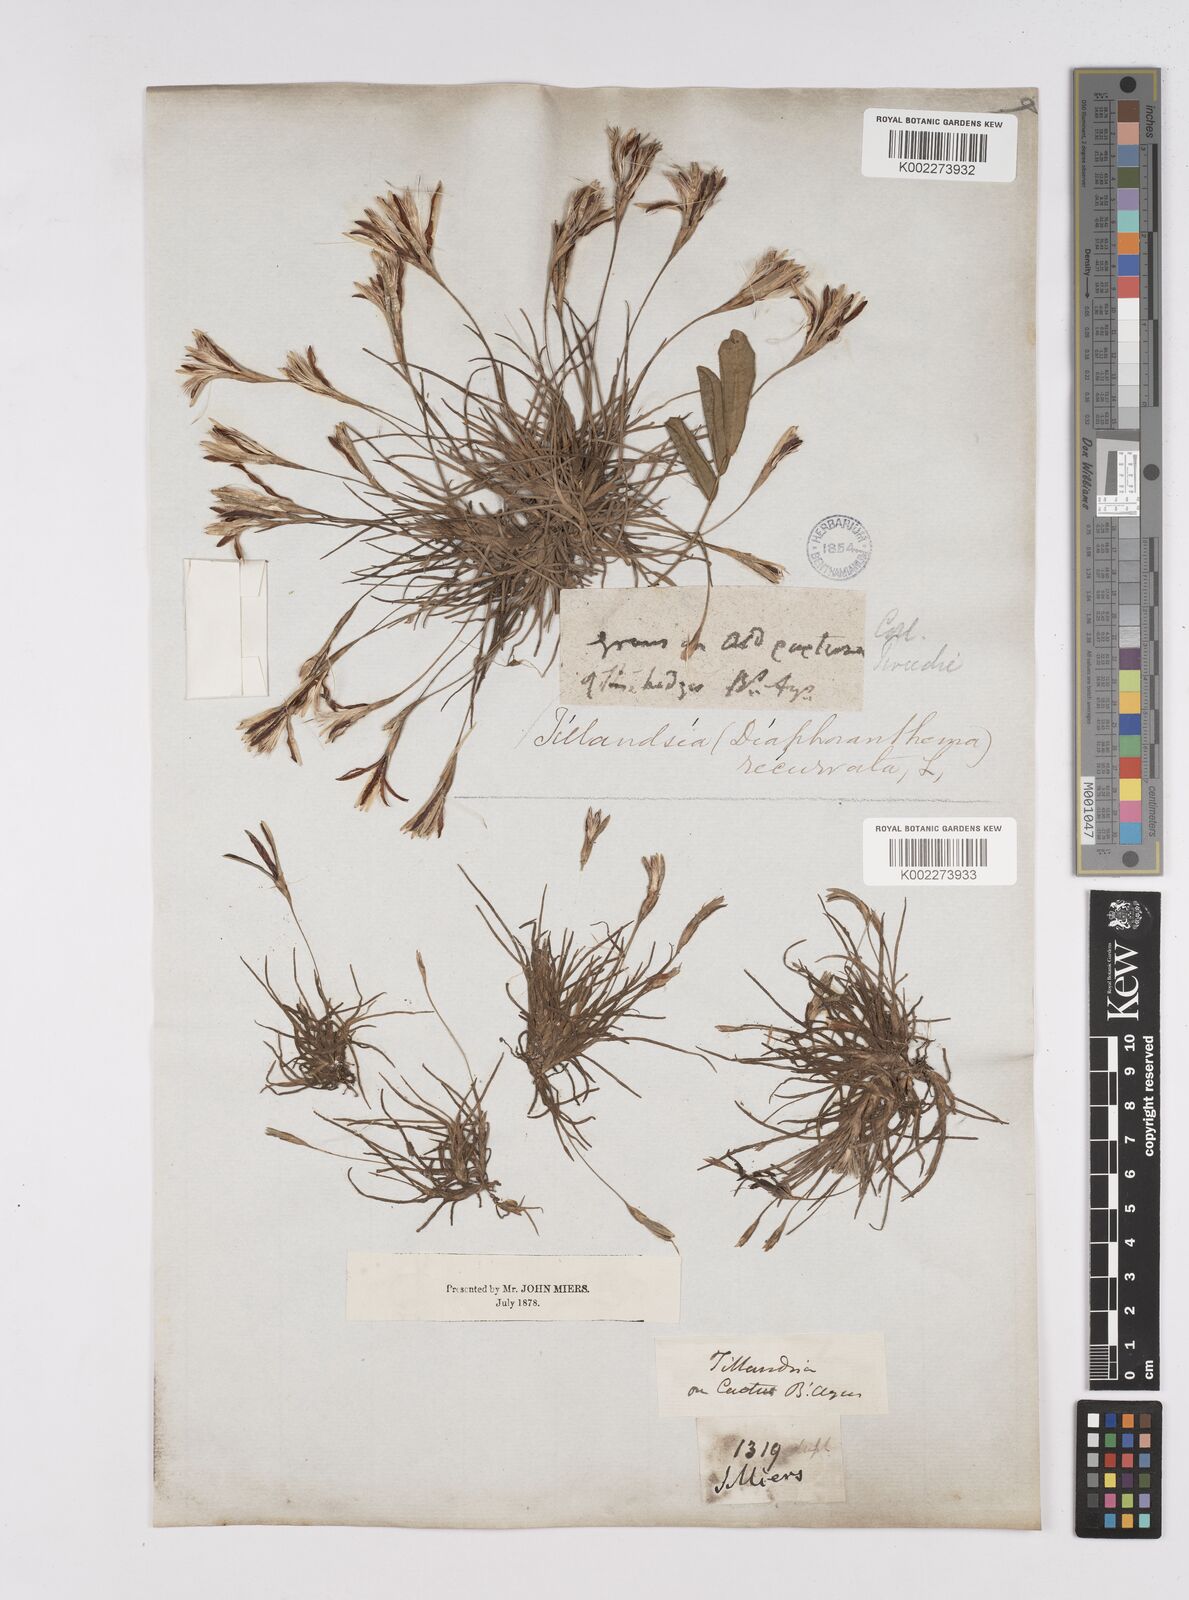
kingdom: Plantae
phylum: Tracheophyta
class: Liliopsida
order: Poales
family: Bromeliaceae
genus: Tillandsia
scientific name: Tillandsia recurvata
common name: Small ballmoss
